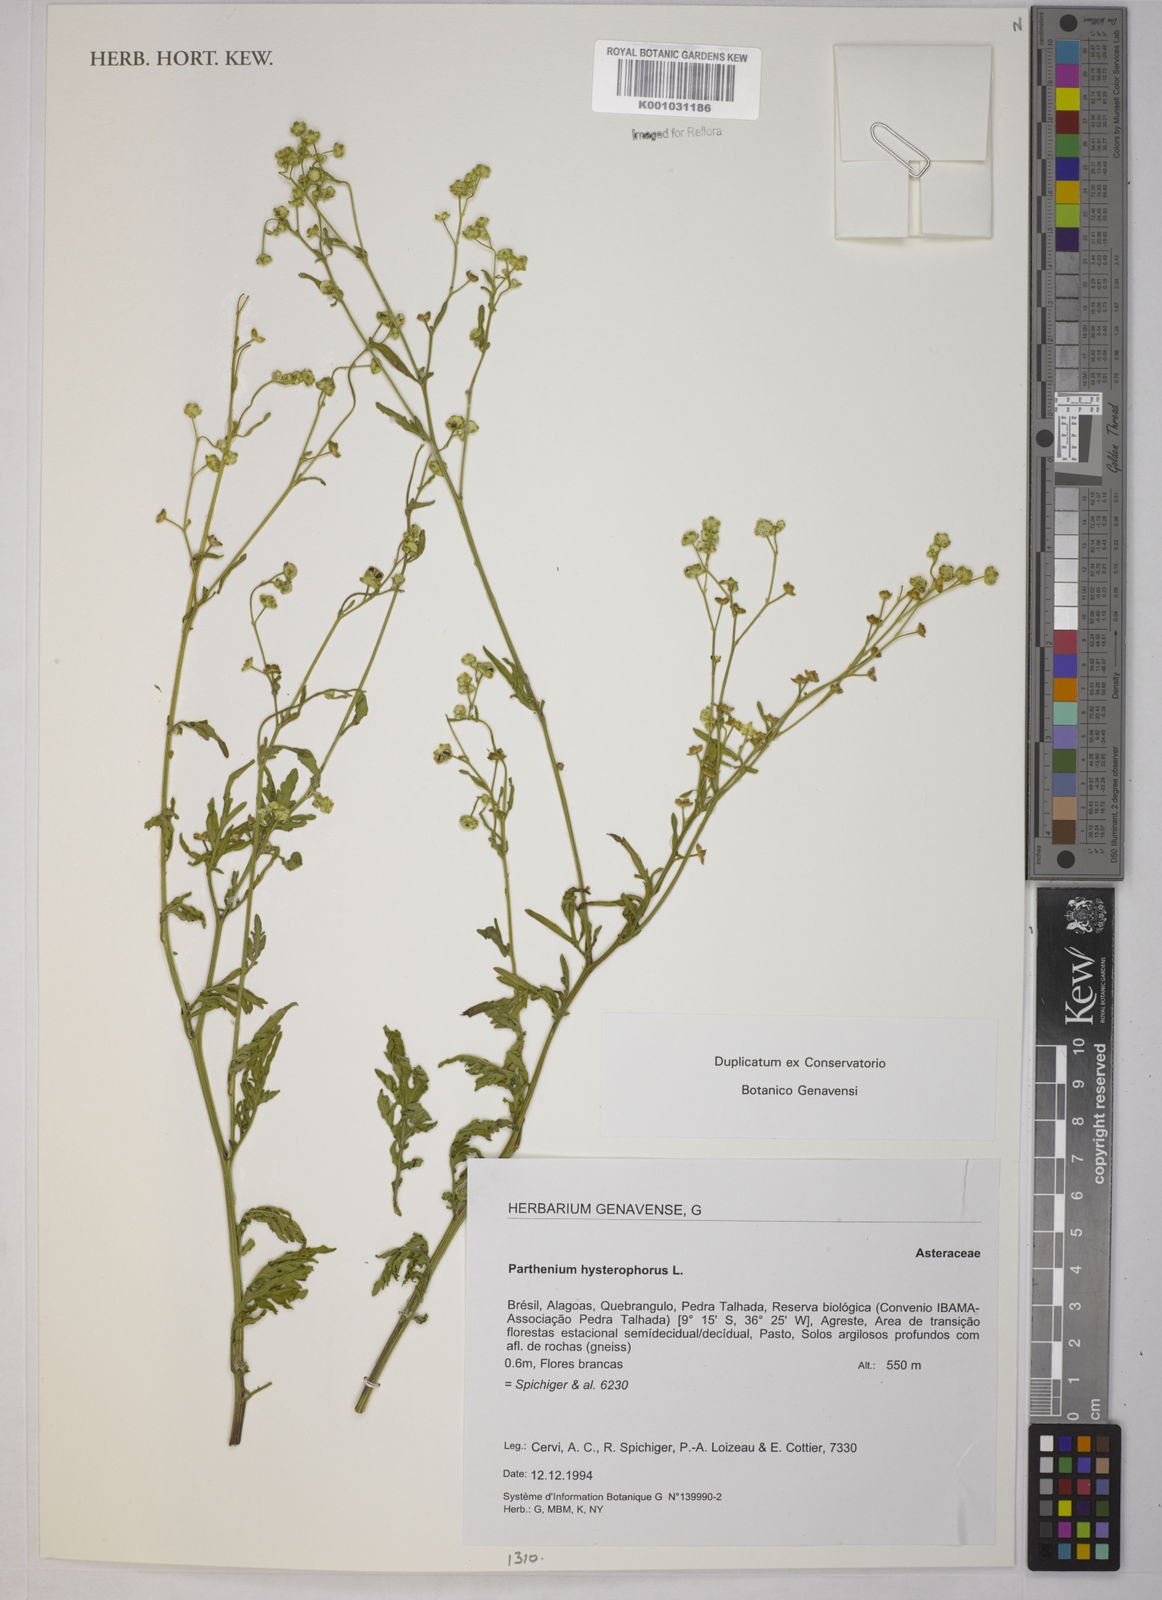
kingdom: Plantae
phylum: Tracheophyta
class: Magnoliopsida
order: Asterales
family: Asteraceae
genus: Parthenium
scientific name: Parthenium hysterophorus
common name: Santa maria feverfew
